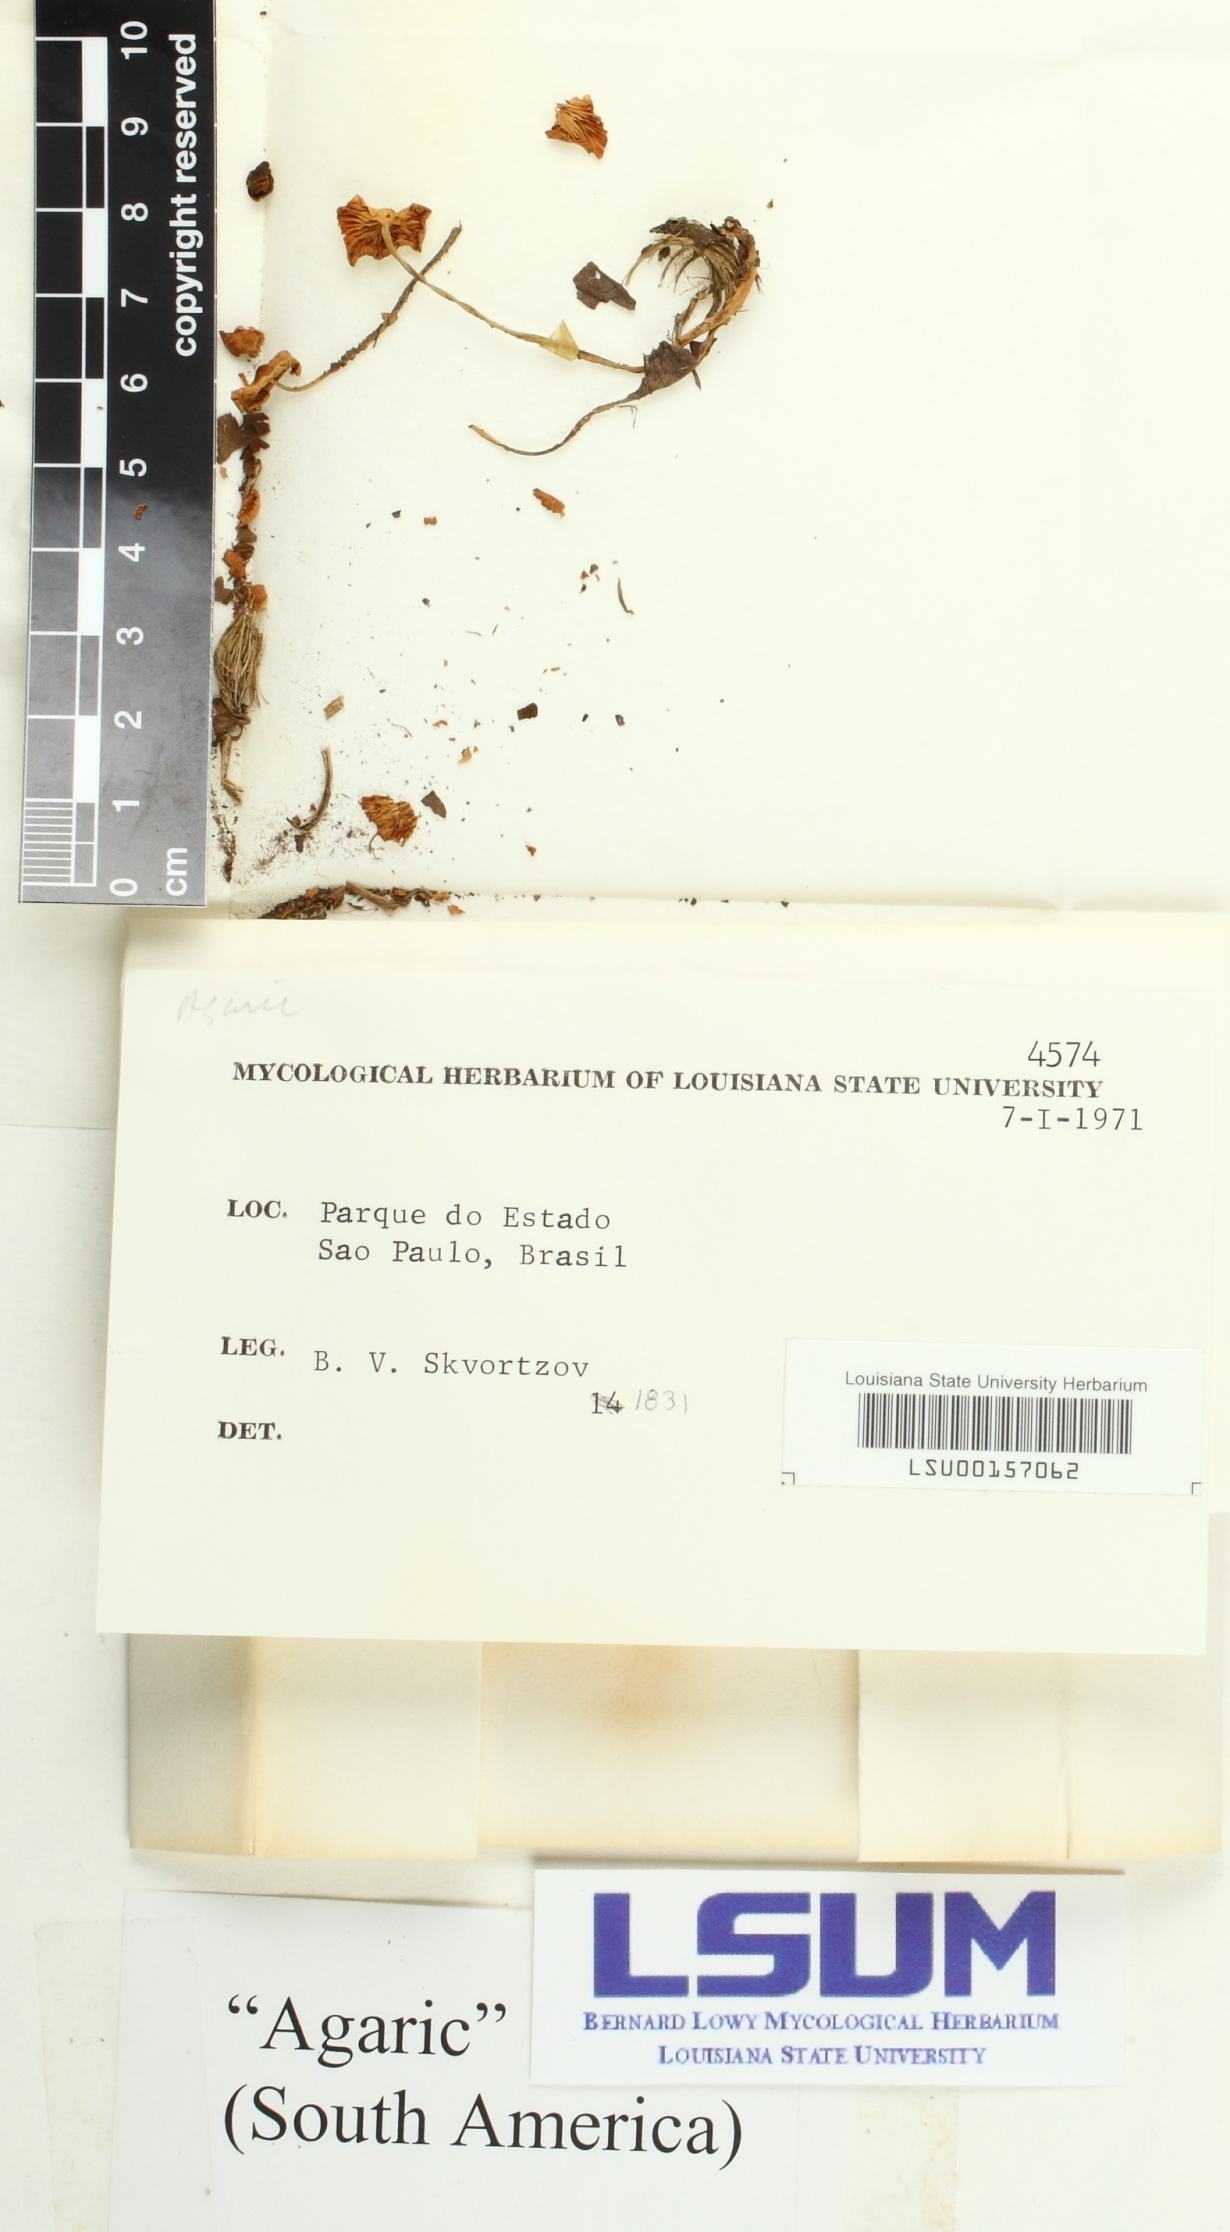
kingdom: Fungi
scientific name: Fungi
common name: Fungi
